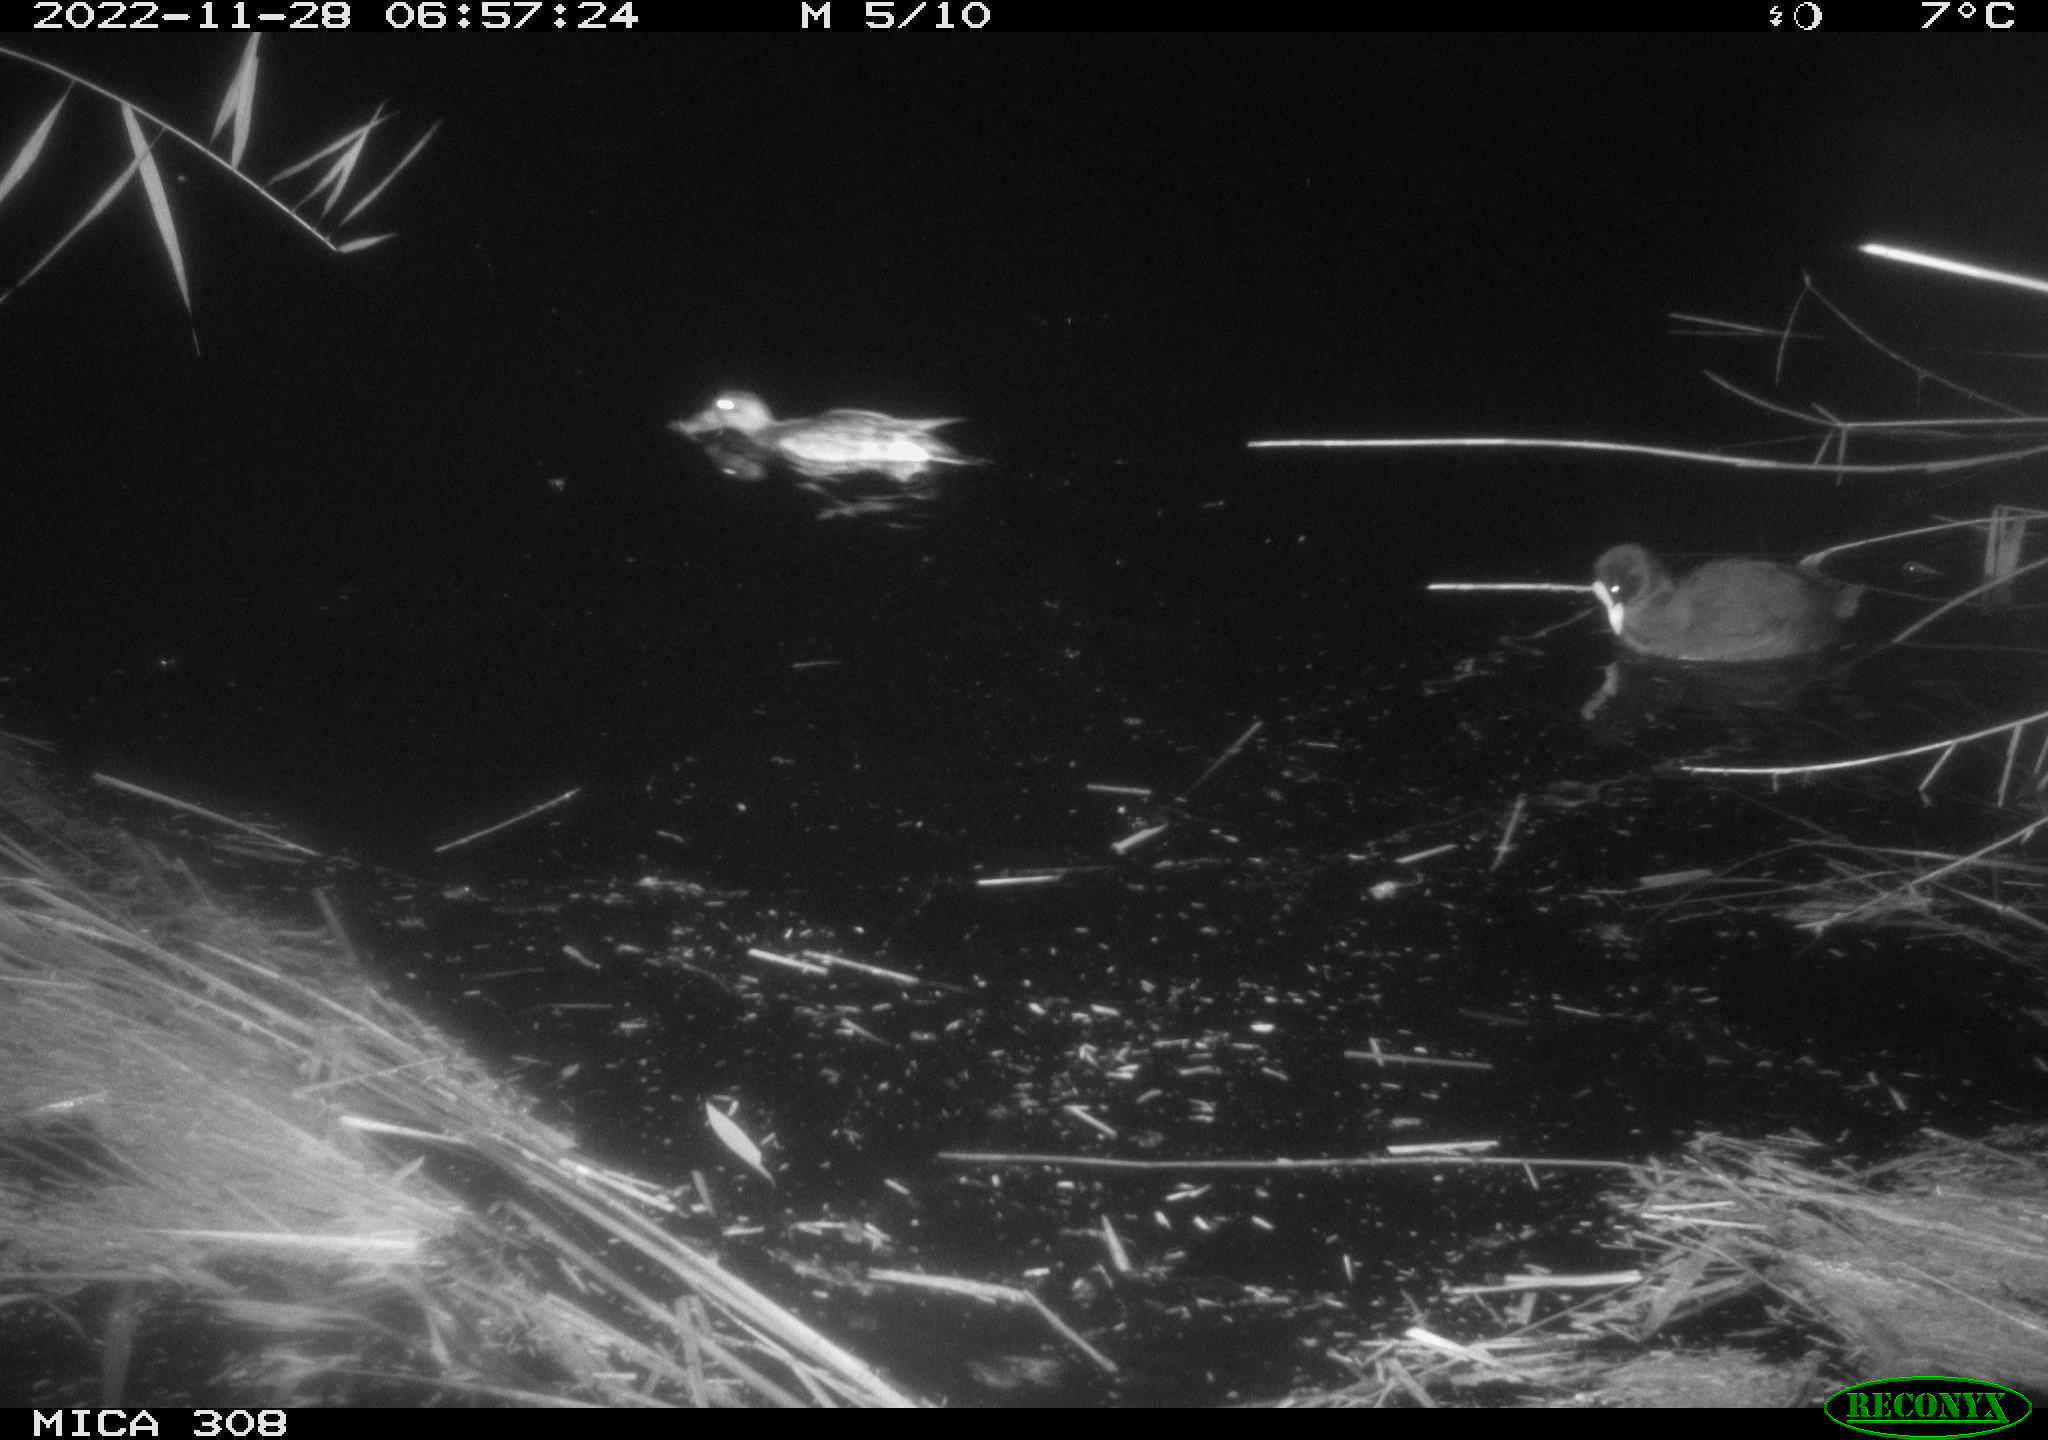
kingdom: Animalia
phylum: Chordata
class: Aves
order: Anseriformes
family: Anatidae
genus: Anas
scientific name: Anas
